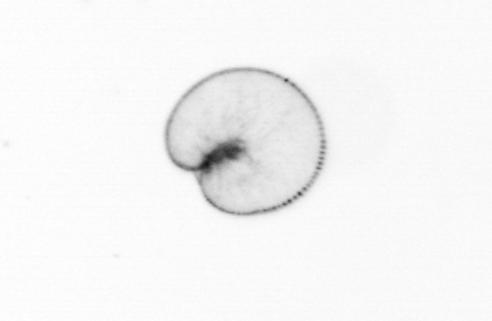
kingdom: Chromista
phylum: Myzozoa
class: Dinophyceae
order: Noctilucales
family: Noctilucaceae
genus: Noctiluca
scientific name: Noctiluca scintillans
